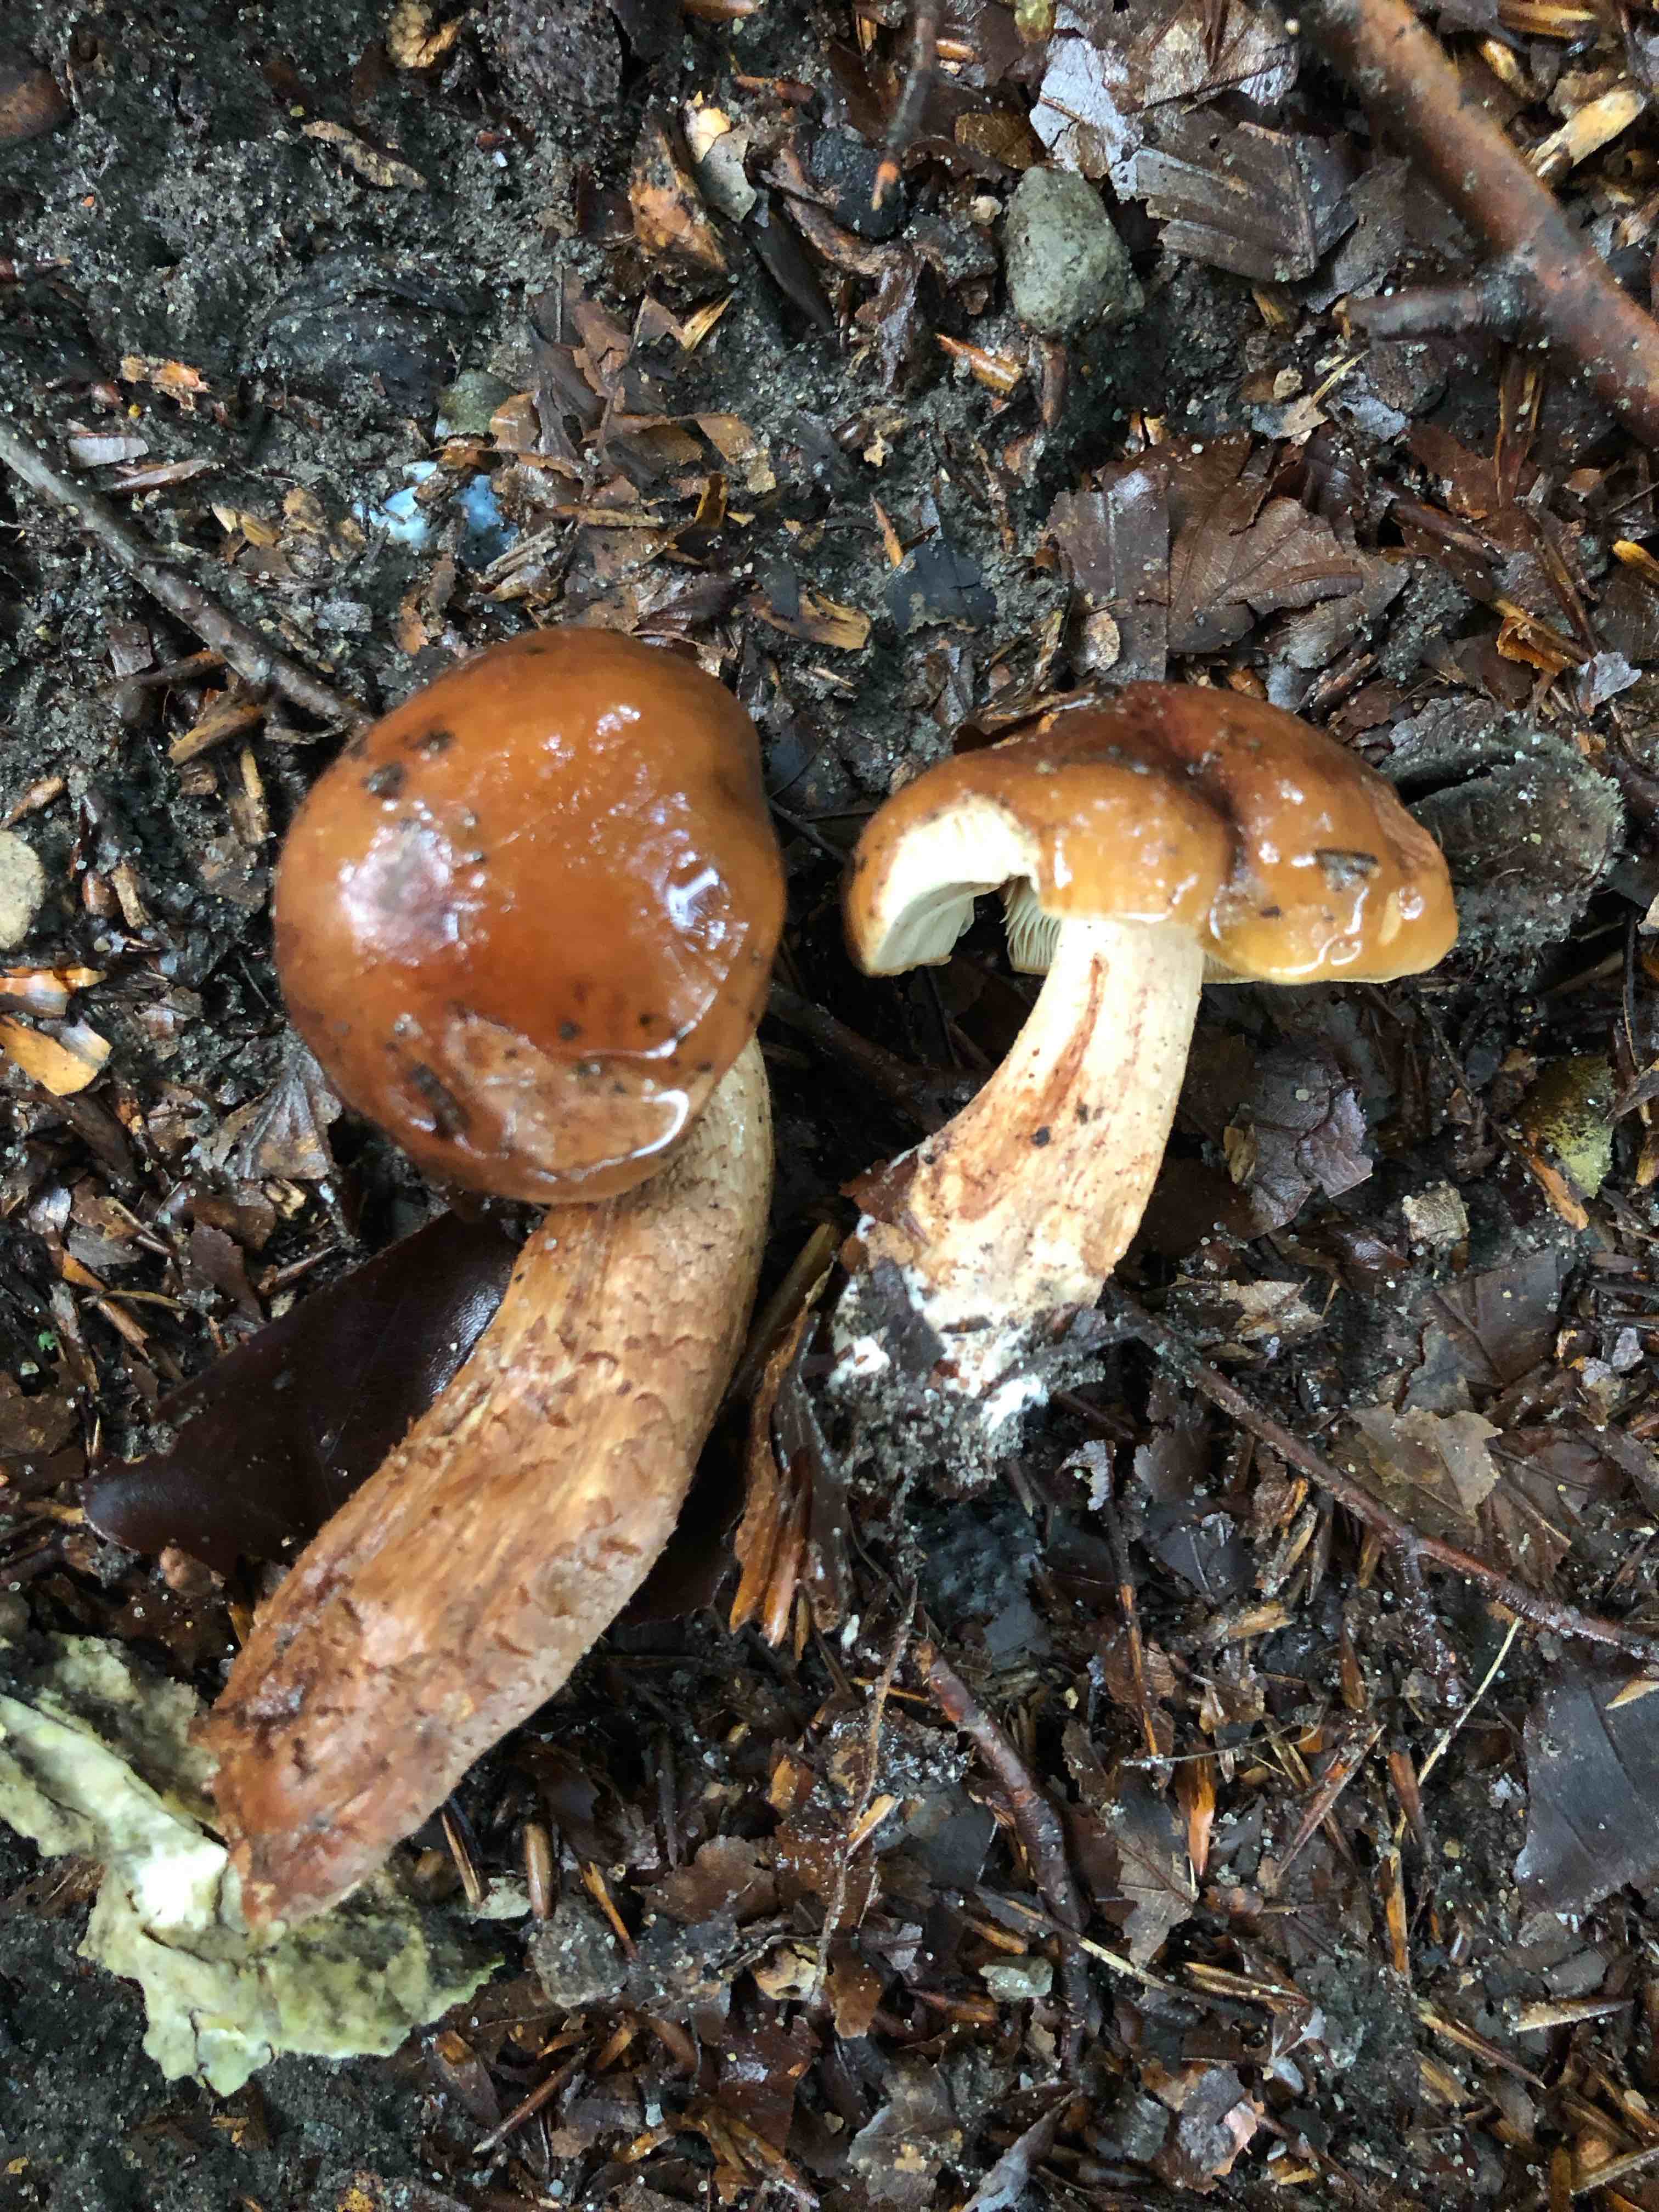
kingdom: Fungi
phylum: Basidiomycota
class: Agaricomycetes
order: Agaricales
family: Tricholomataceae
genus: Tricholoma
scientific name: Tricholoma ustale
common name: sveden ridderhat
